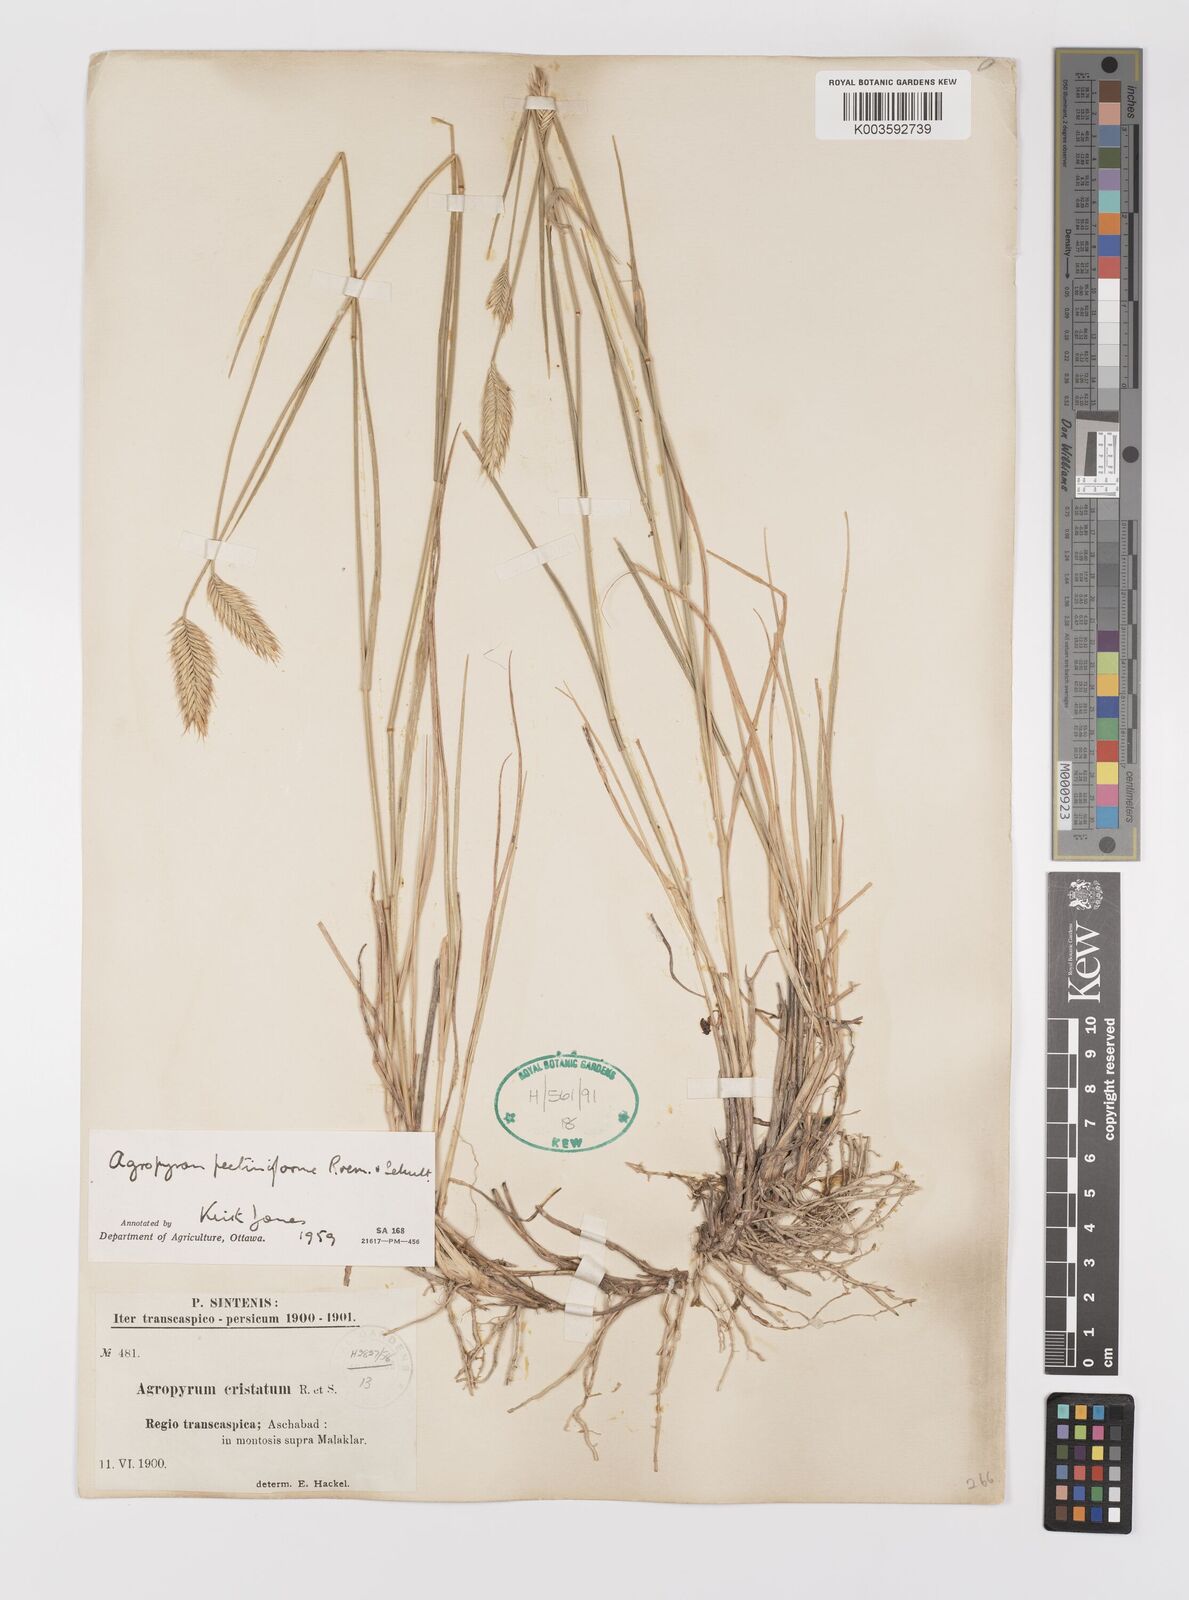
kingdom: Plantae
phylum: Tracheophyta
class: Liliopsida
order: Poales
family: Poaceae
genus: Agropyron
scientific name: Agropyron cristatum
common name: Crested wheatgrass
